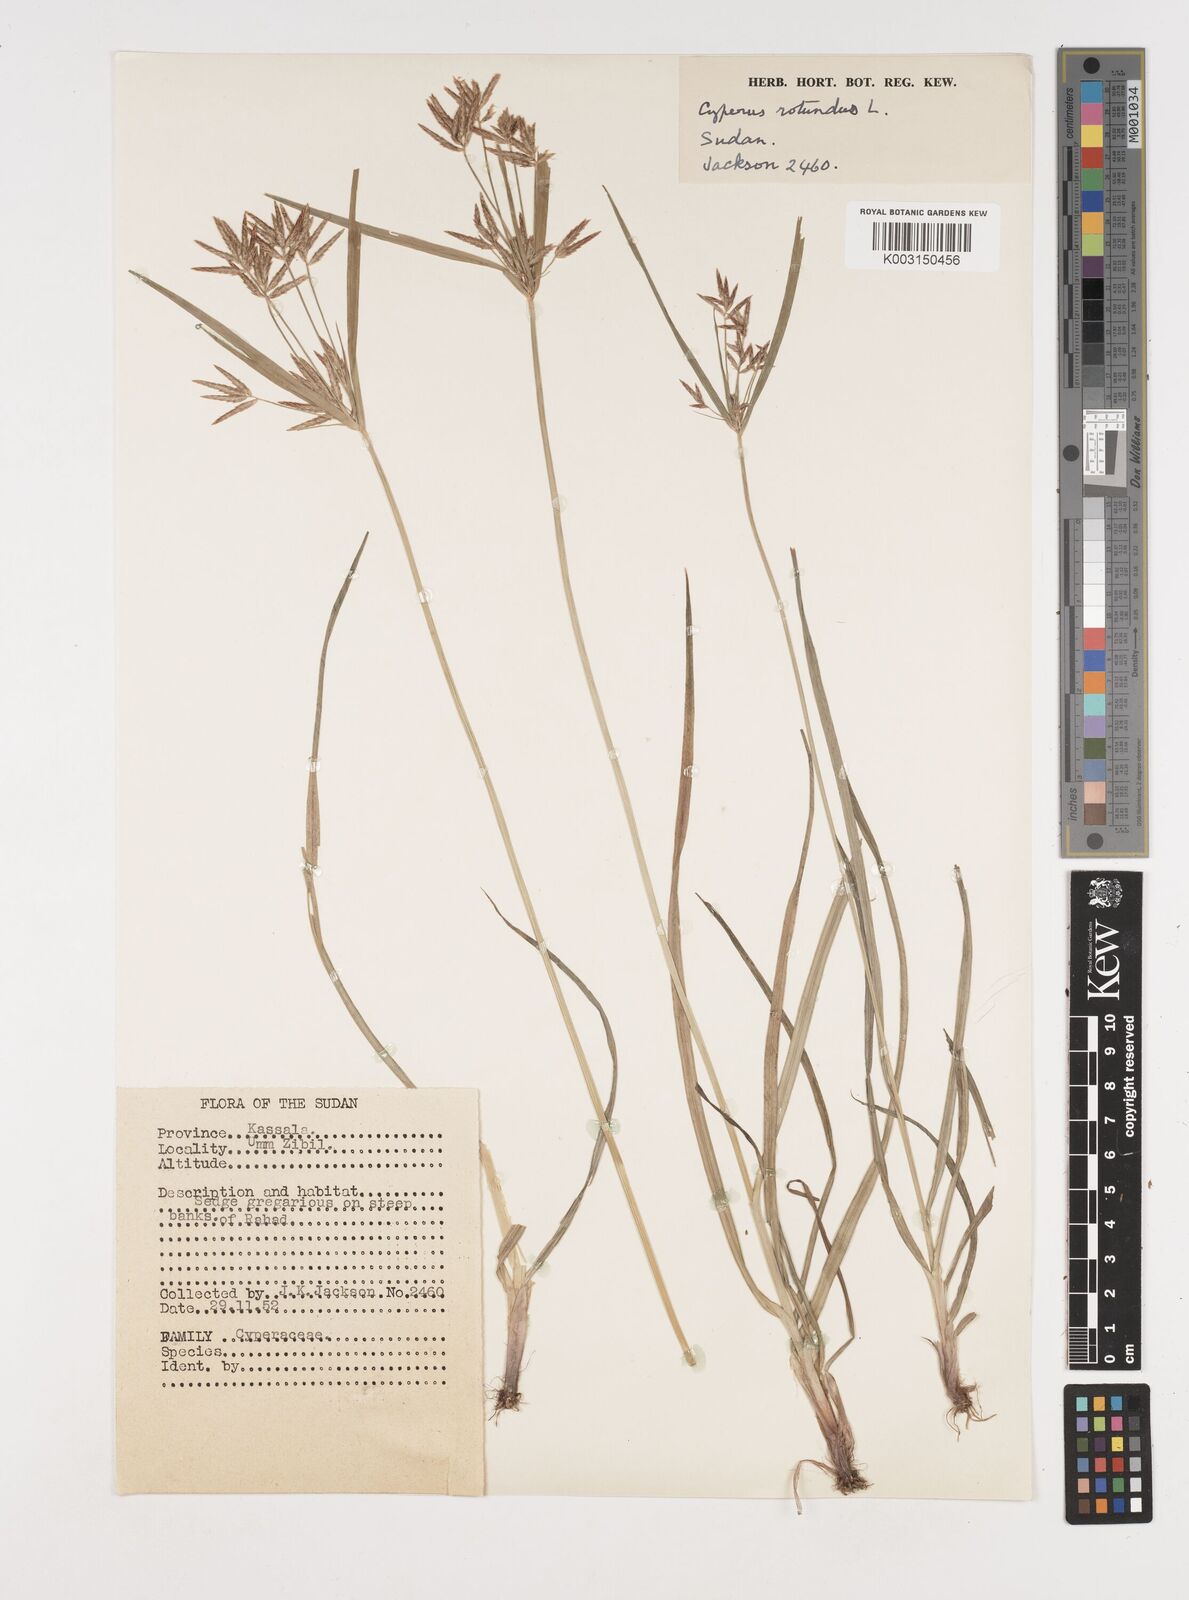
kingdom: Plantae
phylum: Tracheophyta
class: Liliopsida
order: Poales
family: Cyperaceae
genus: Cyperus
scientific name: Cyperus rotundus
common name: Nutgrass
